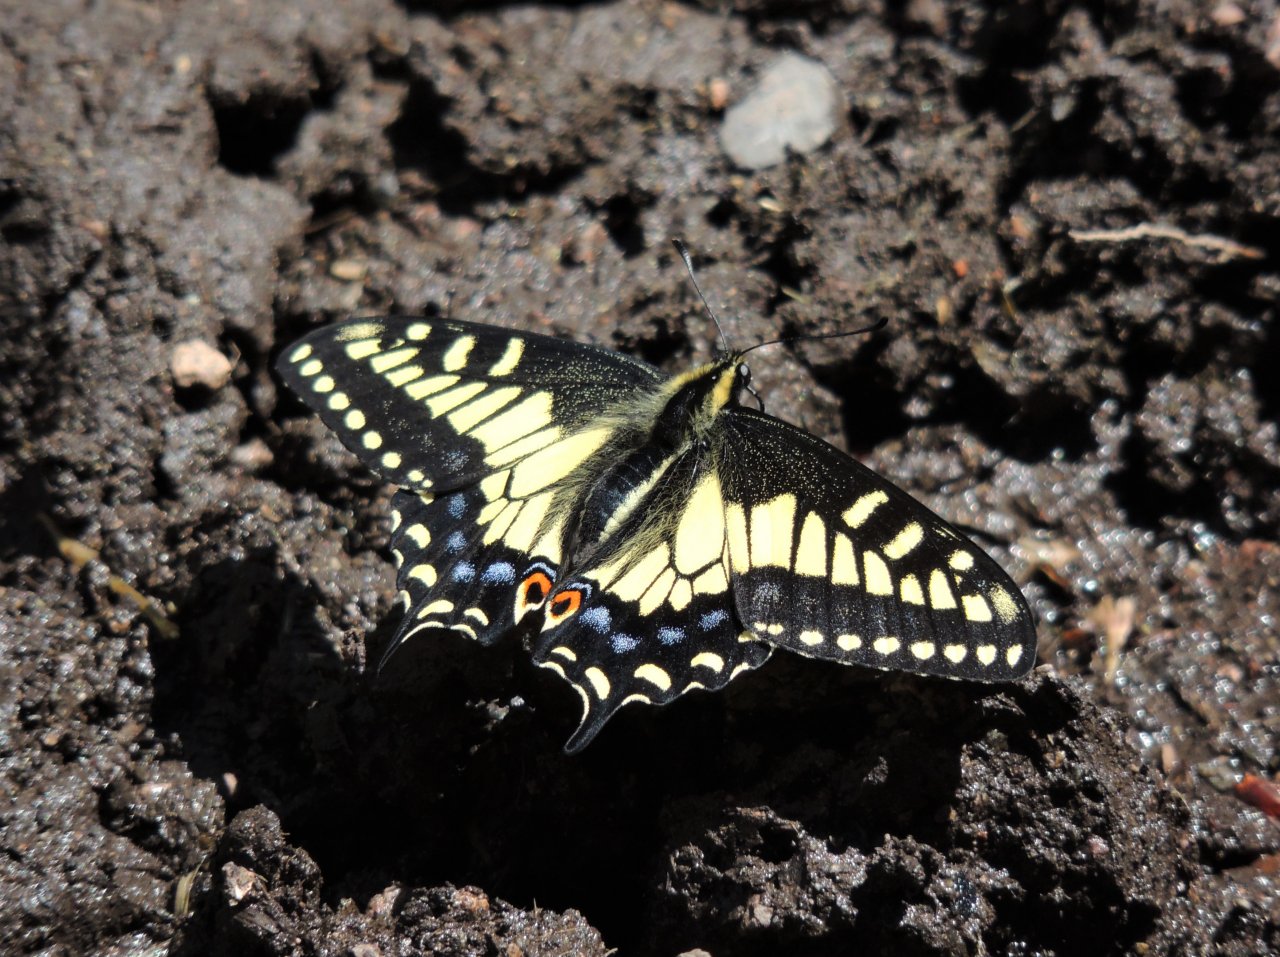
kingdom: Animalia
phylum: Arthropoda
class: Insecta
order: Lepidoptera
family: Papilionidae
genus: Papilio
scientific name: Papilio zelicaon
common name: Anise Swallowtail
